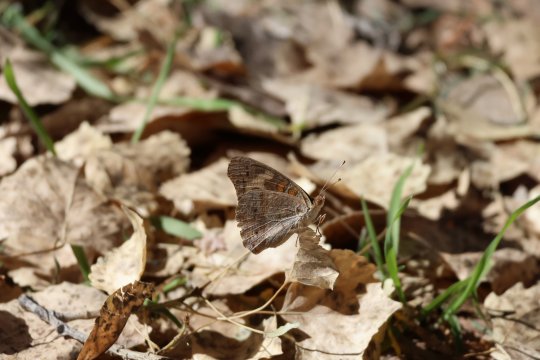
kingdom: Animalia
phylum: Arthropoda
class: Insecta
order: Lepidoptera
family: Nymphalidae
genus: Junonia
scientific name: Junonia coenia
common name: Common Buckeye
